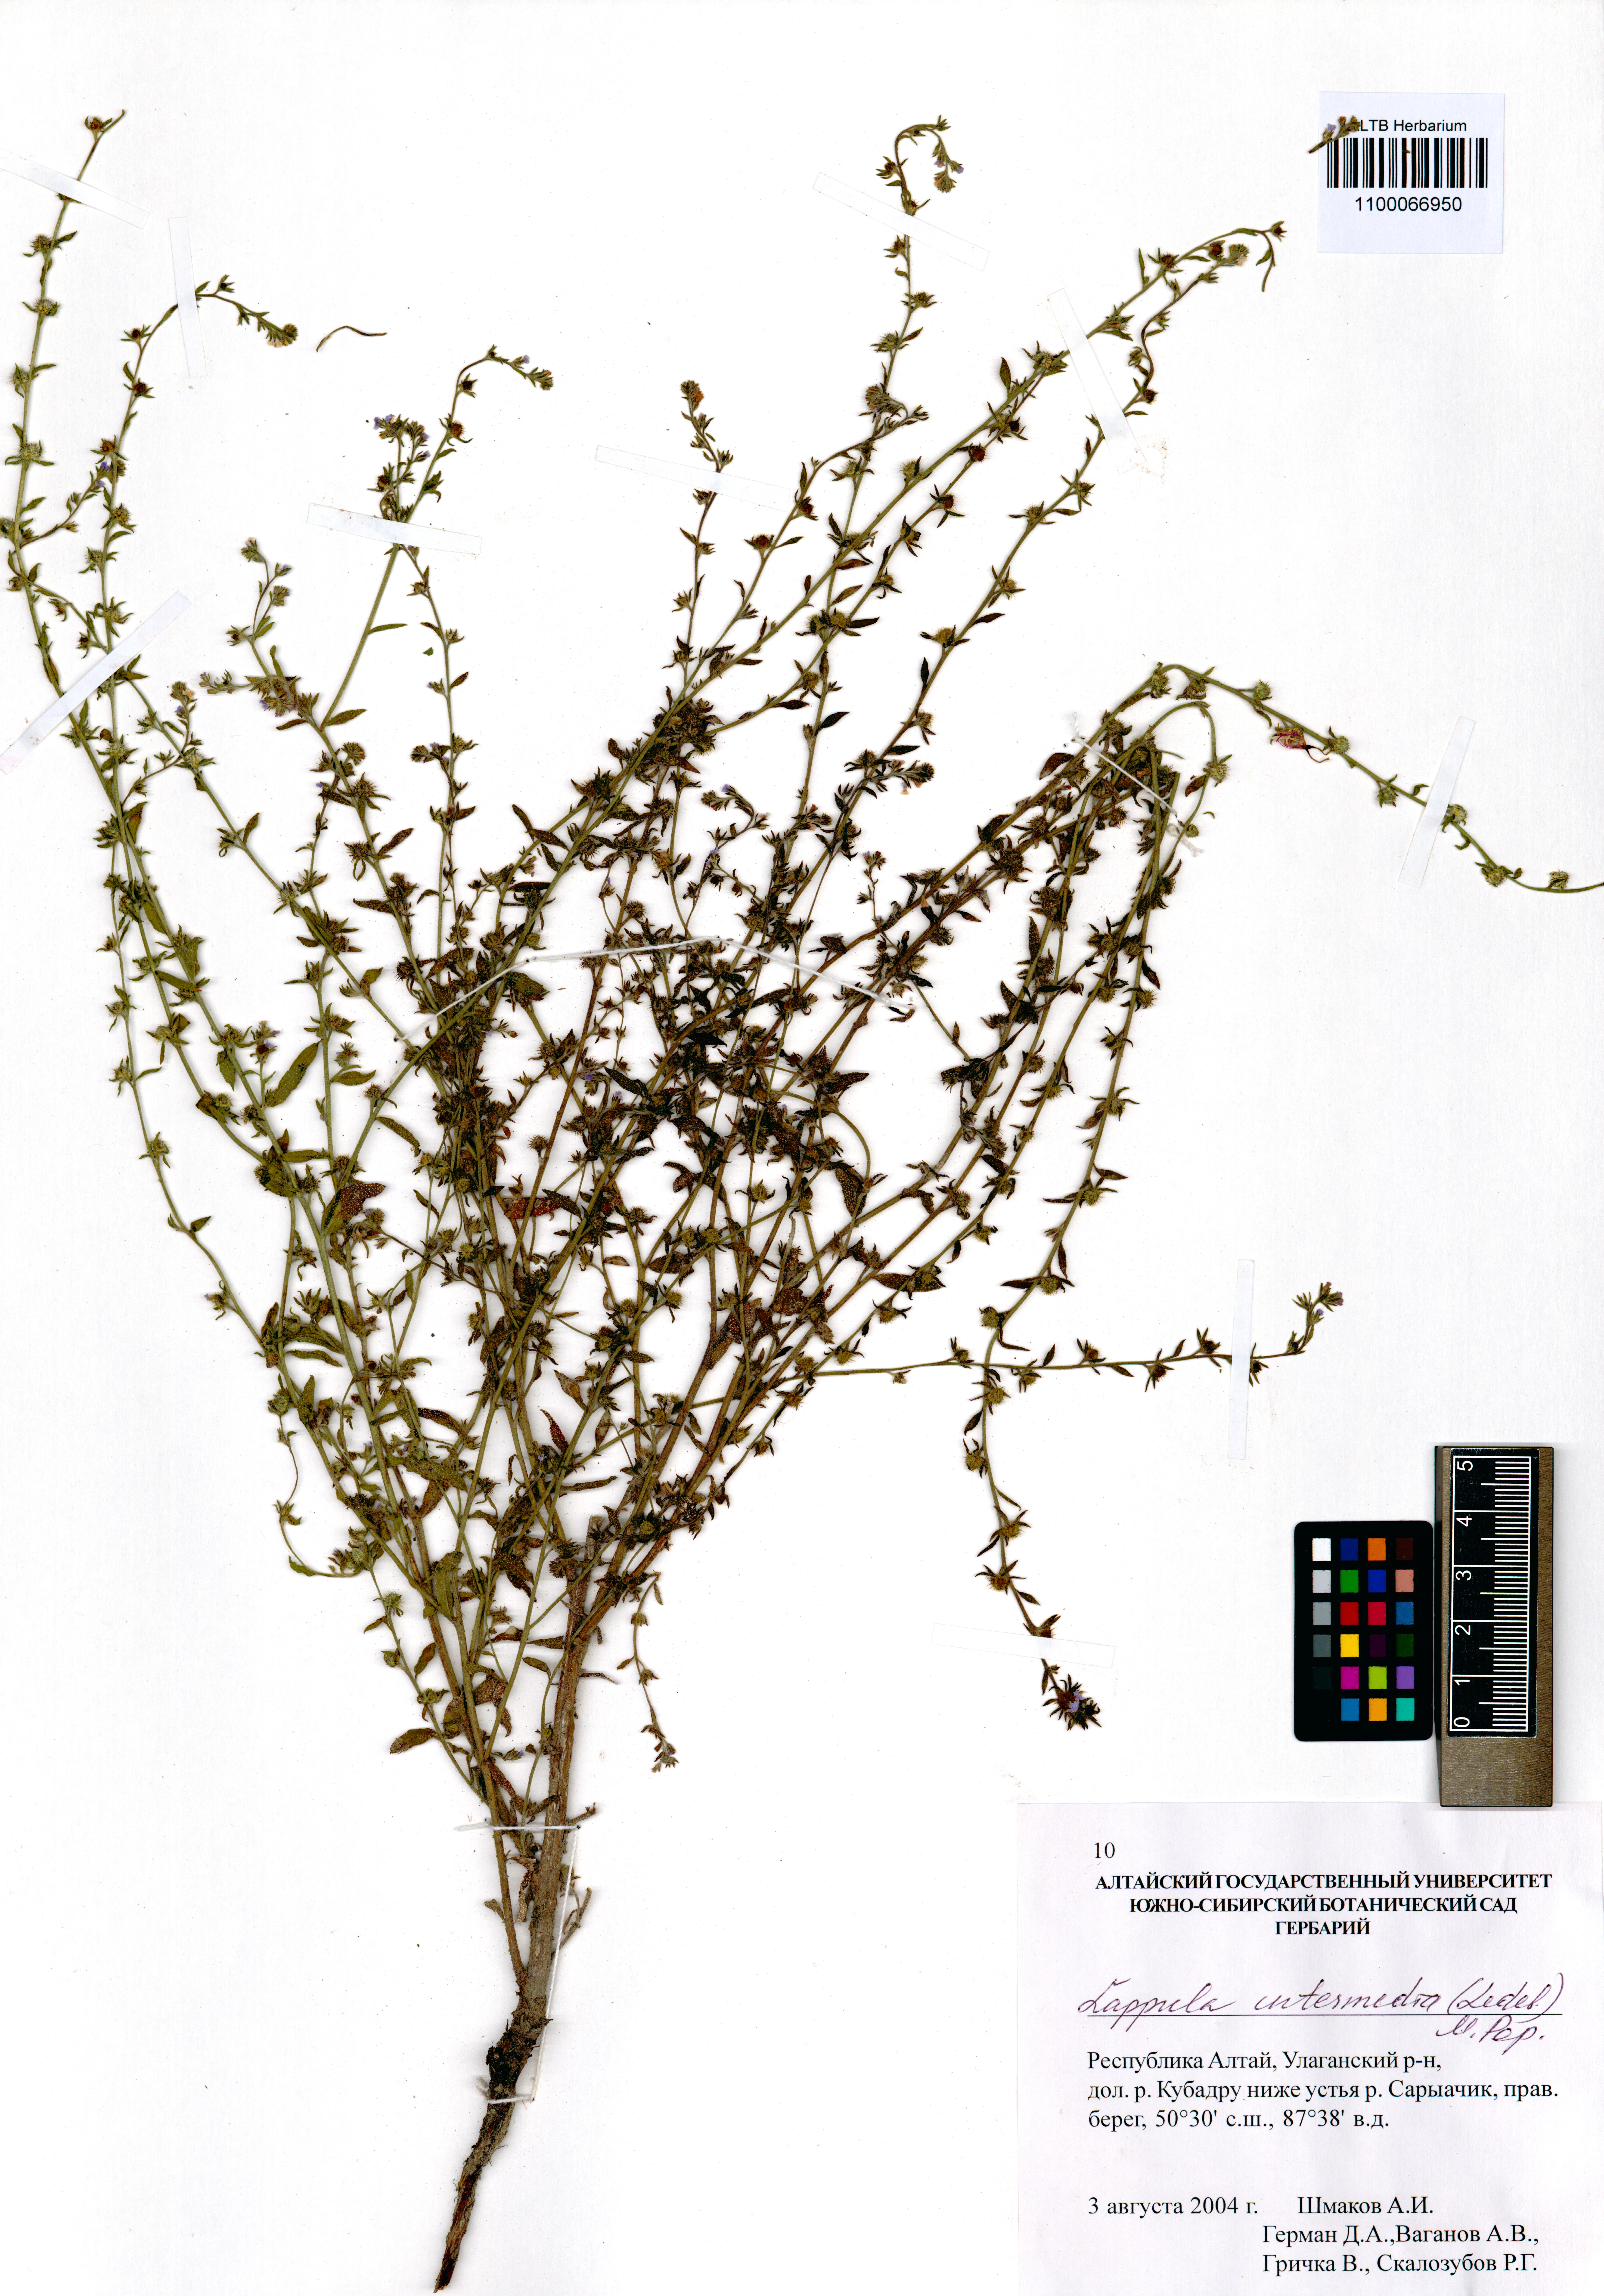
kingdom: Plantae
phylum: Tracheophyta
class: Magnoliopsida
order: Boraginales
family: Boraginaceae
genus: Lappula
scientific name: Lappula intermedia
